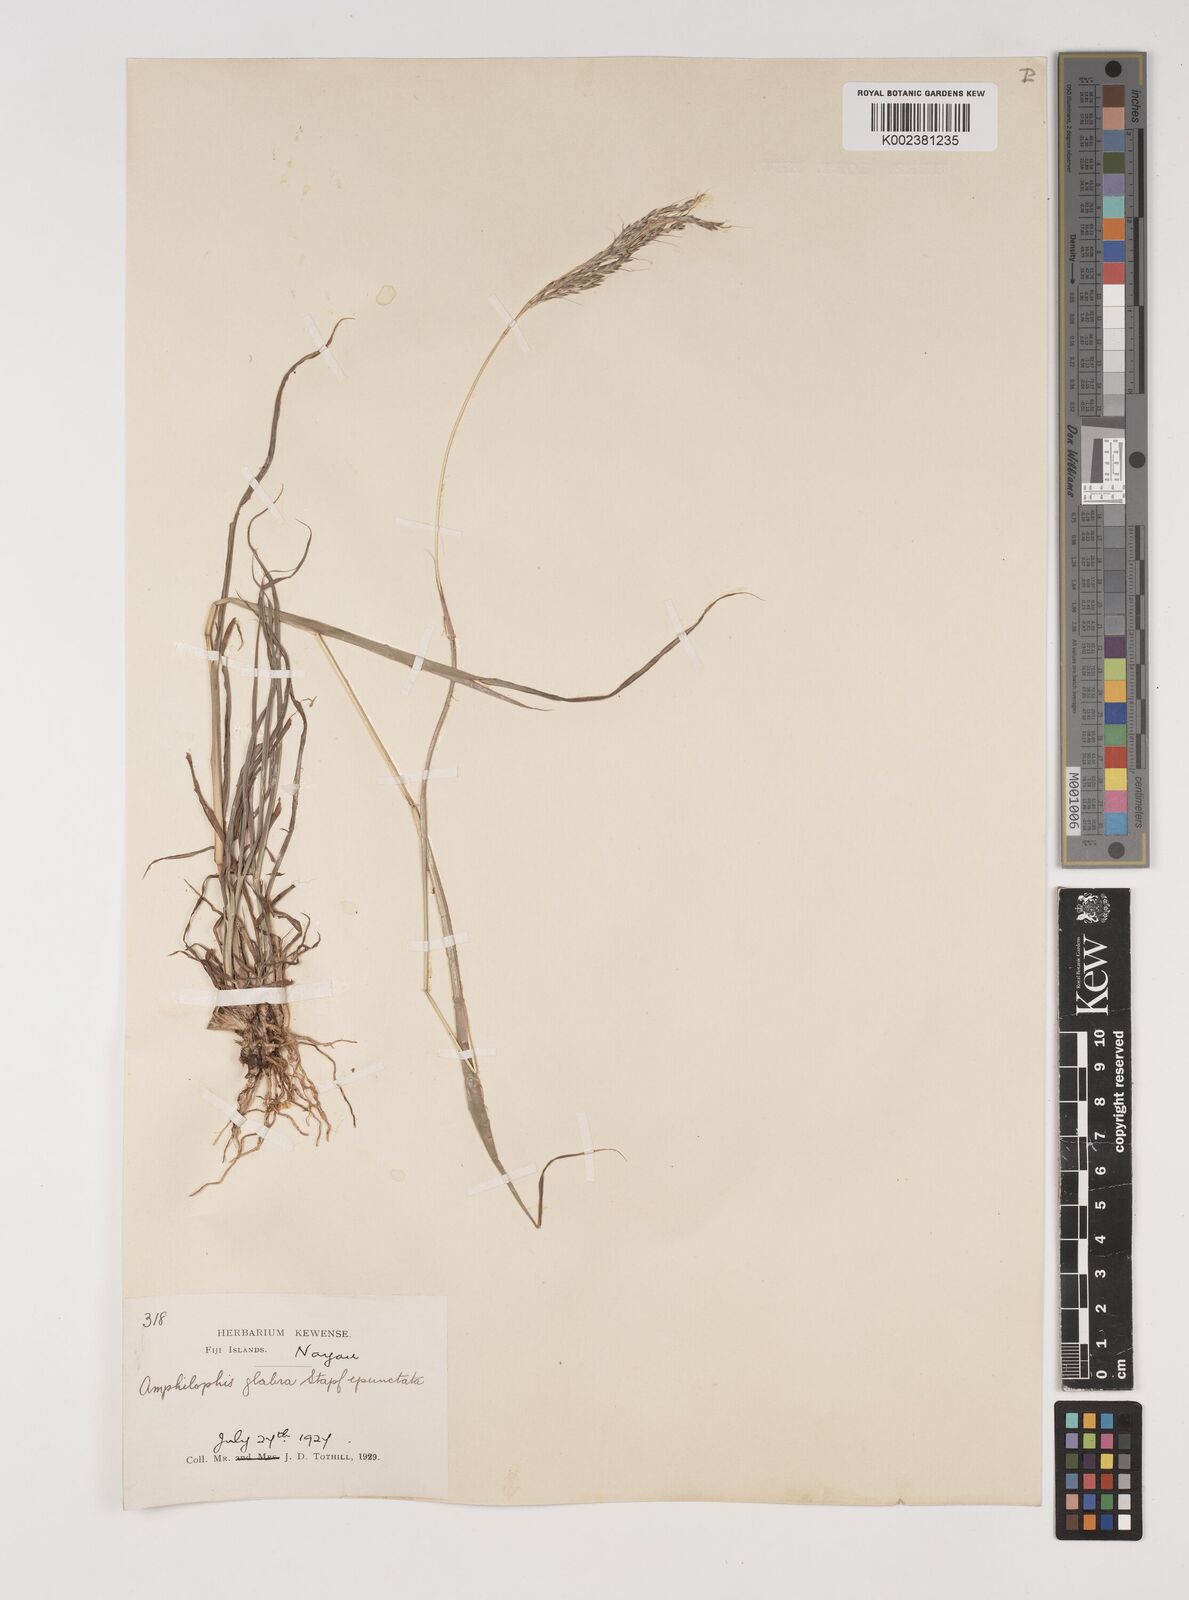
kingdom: Plantae
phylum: Tracheophyta
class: Liliopsida
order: Poales
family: Poaceae
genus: Bothriochloa
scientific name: Bothriochloa bladhii
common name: Caucasian bluestem
